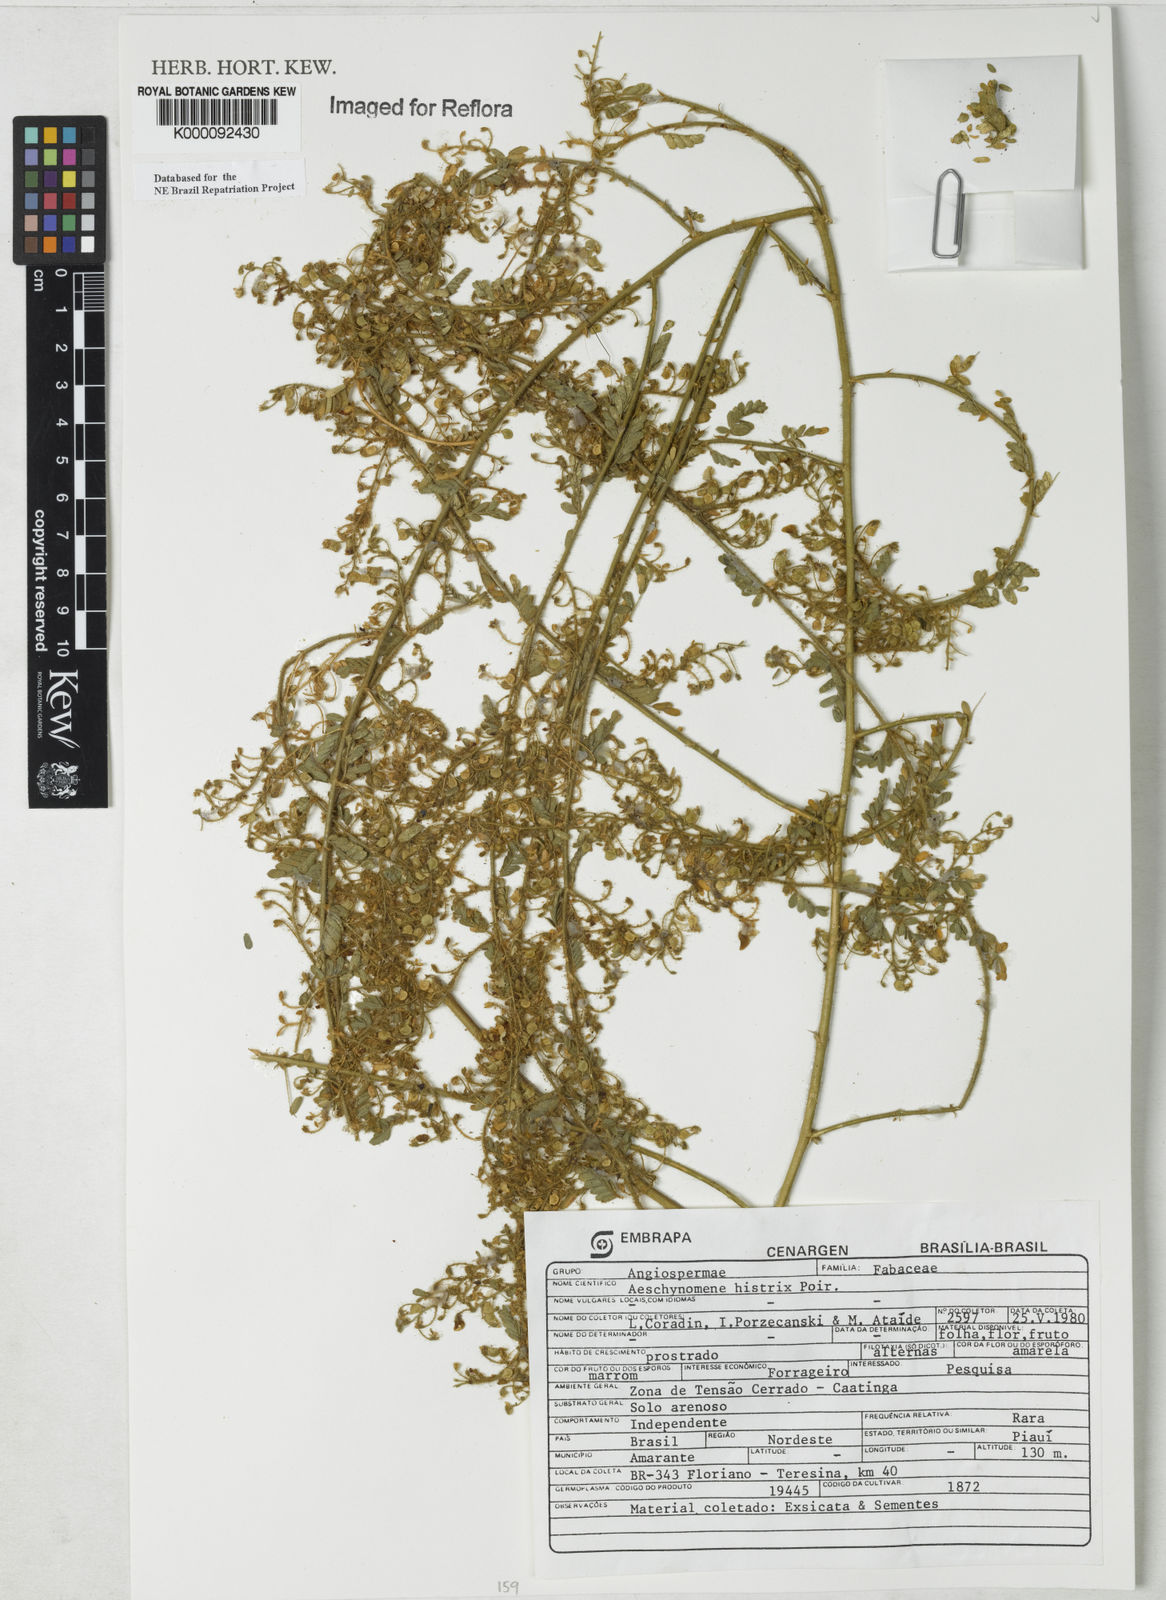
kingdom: Plantae
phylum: Tracheophyta
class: Magnoliopsida
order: Fabales
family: Fabaceae
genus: Ctenodon
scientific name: Ctenodon histrix
